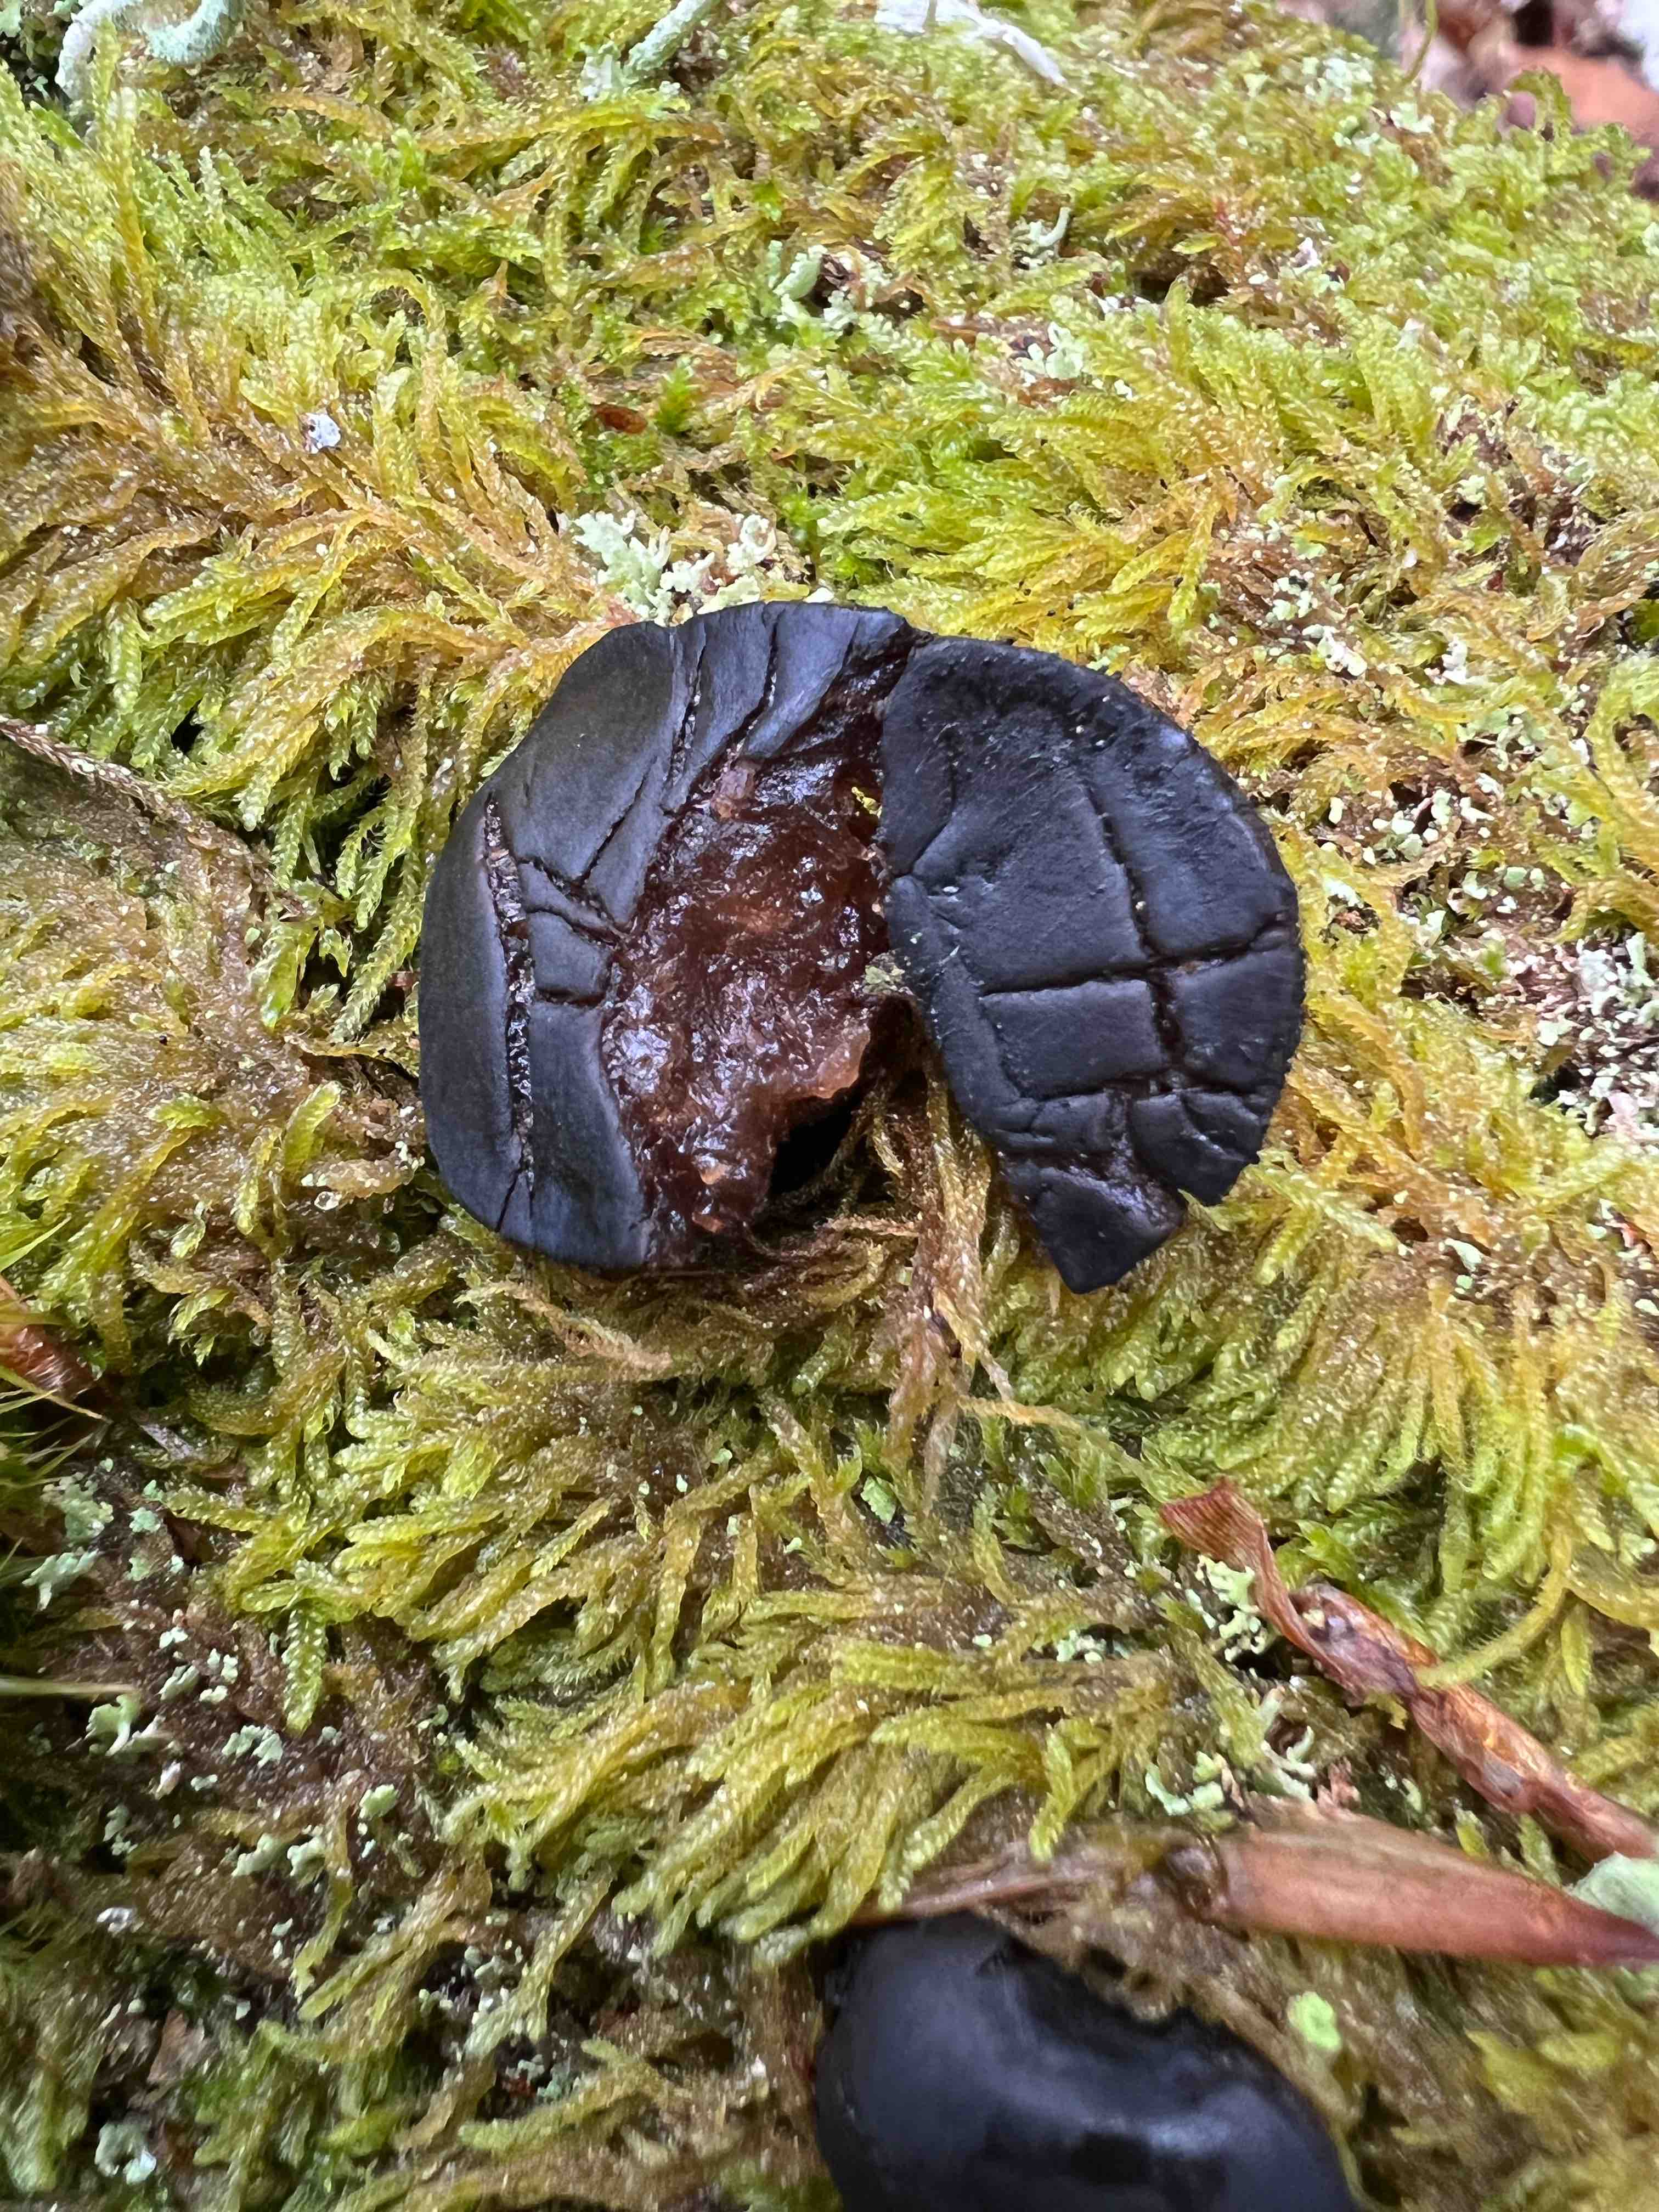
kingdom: Fungi
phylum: Ascomycota
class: Leotiomycetes
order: Phacidiales
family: Phacidiaceae
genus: Bulgaria
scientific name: Bulgaria inquinans
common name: afsmittende topsvamp
